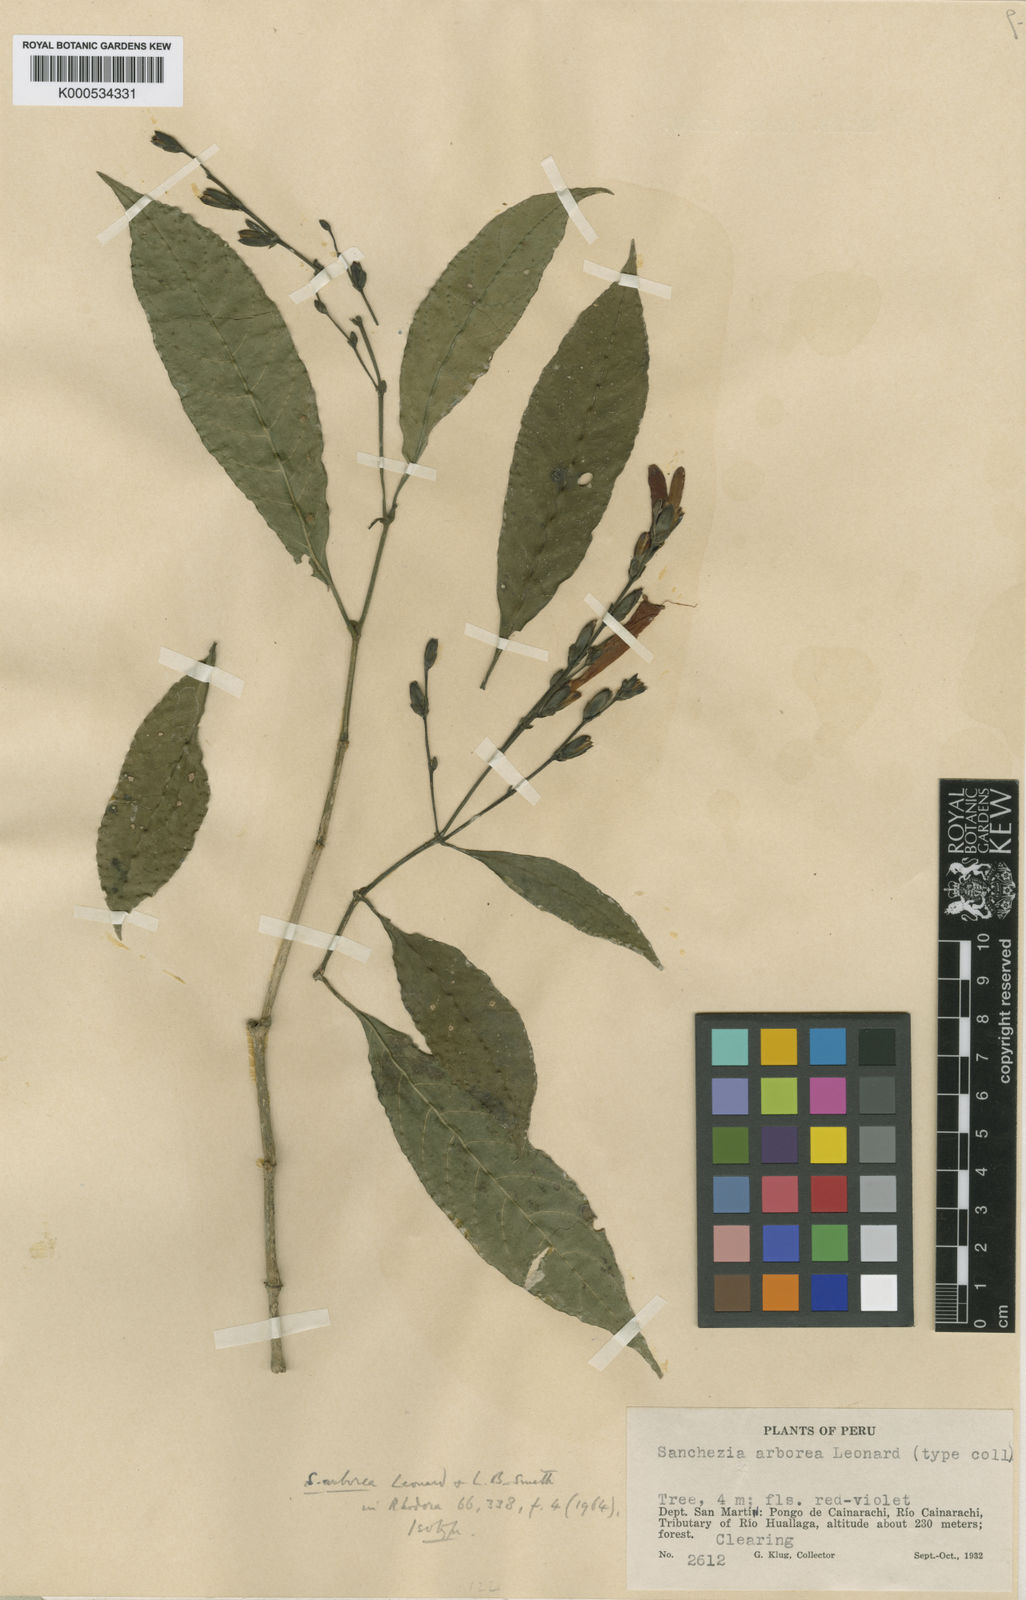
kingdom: Plantae
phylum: Tracheophyta
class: Magnoliopsida
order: Lamiales
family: Acanthaceae
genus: Sanchezia
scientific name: Sanchezia scandens
